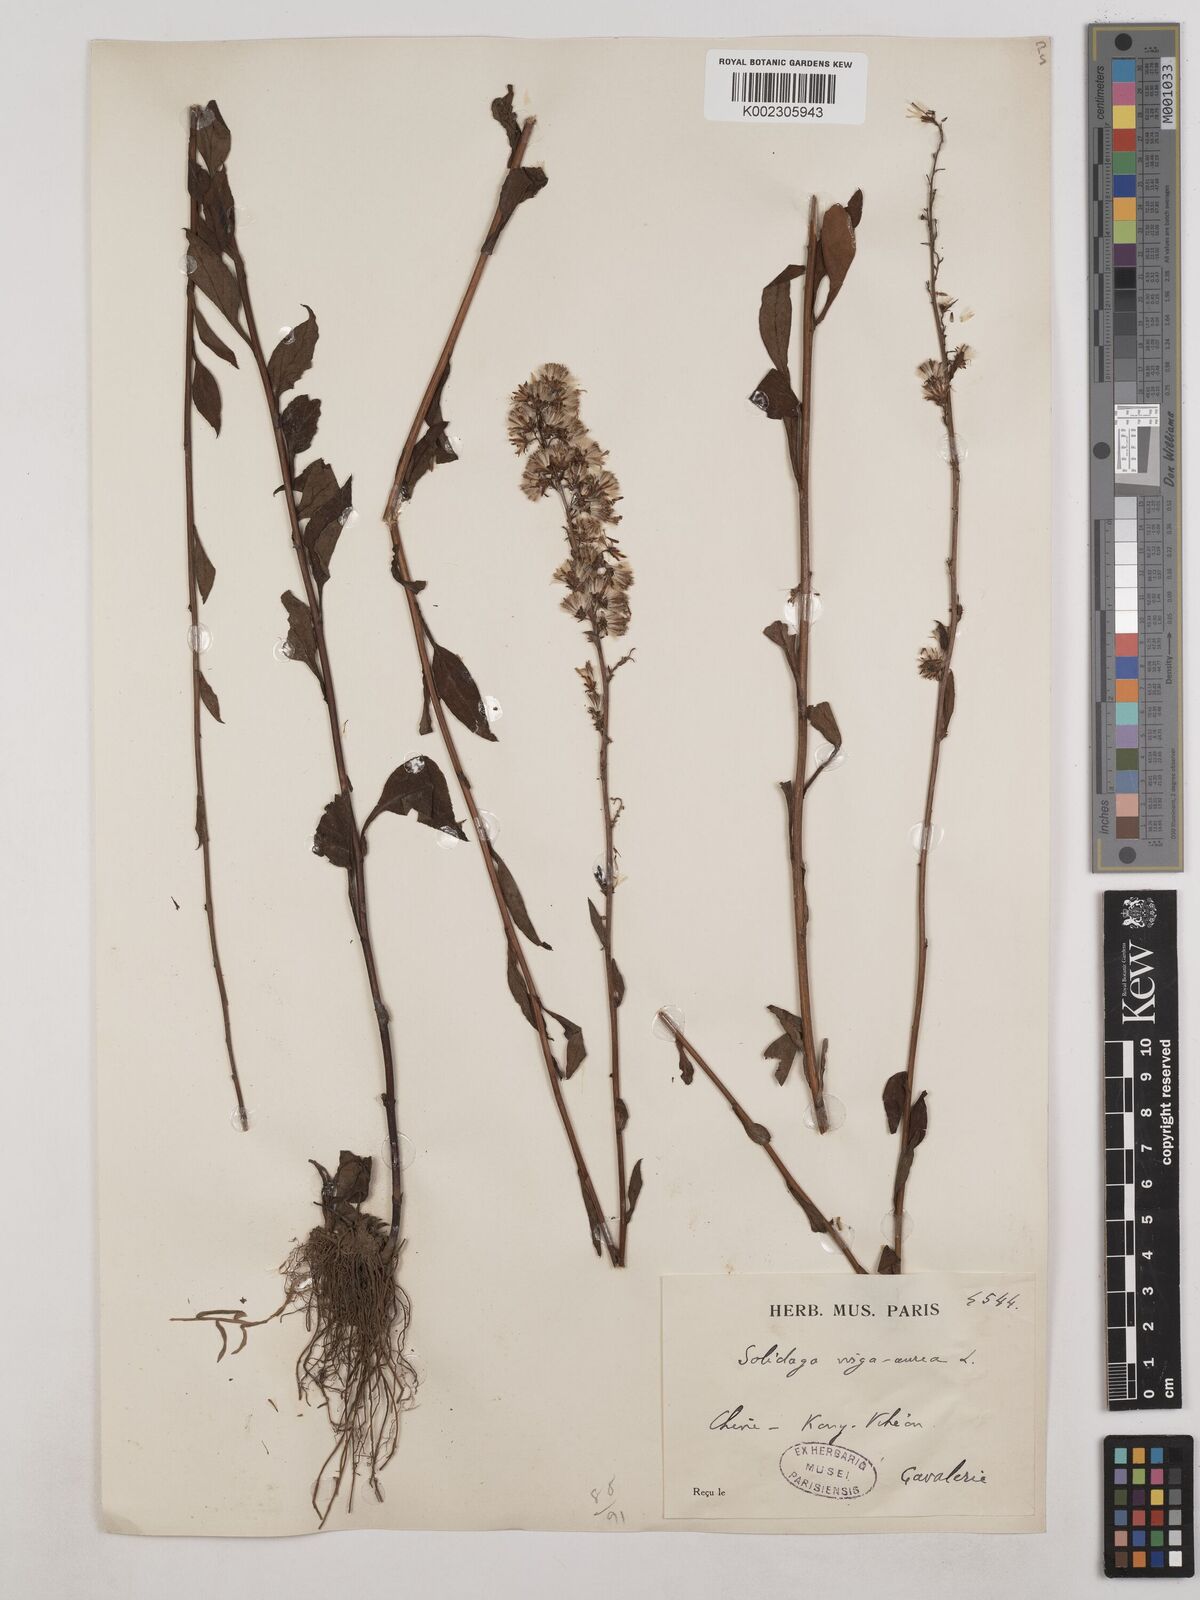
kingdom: Plantae
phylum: Tracheophyta
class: Magnoliopsida
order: Asterales
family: Asteraceae
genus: Solidago
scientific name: Solidago virgaurea
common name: Goldenrod
